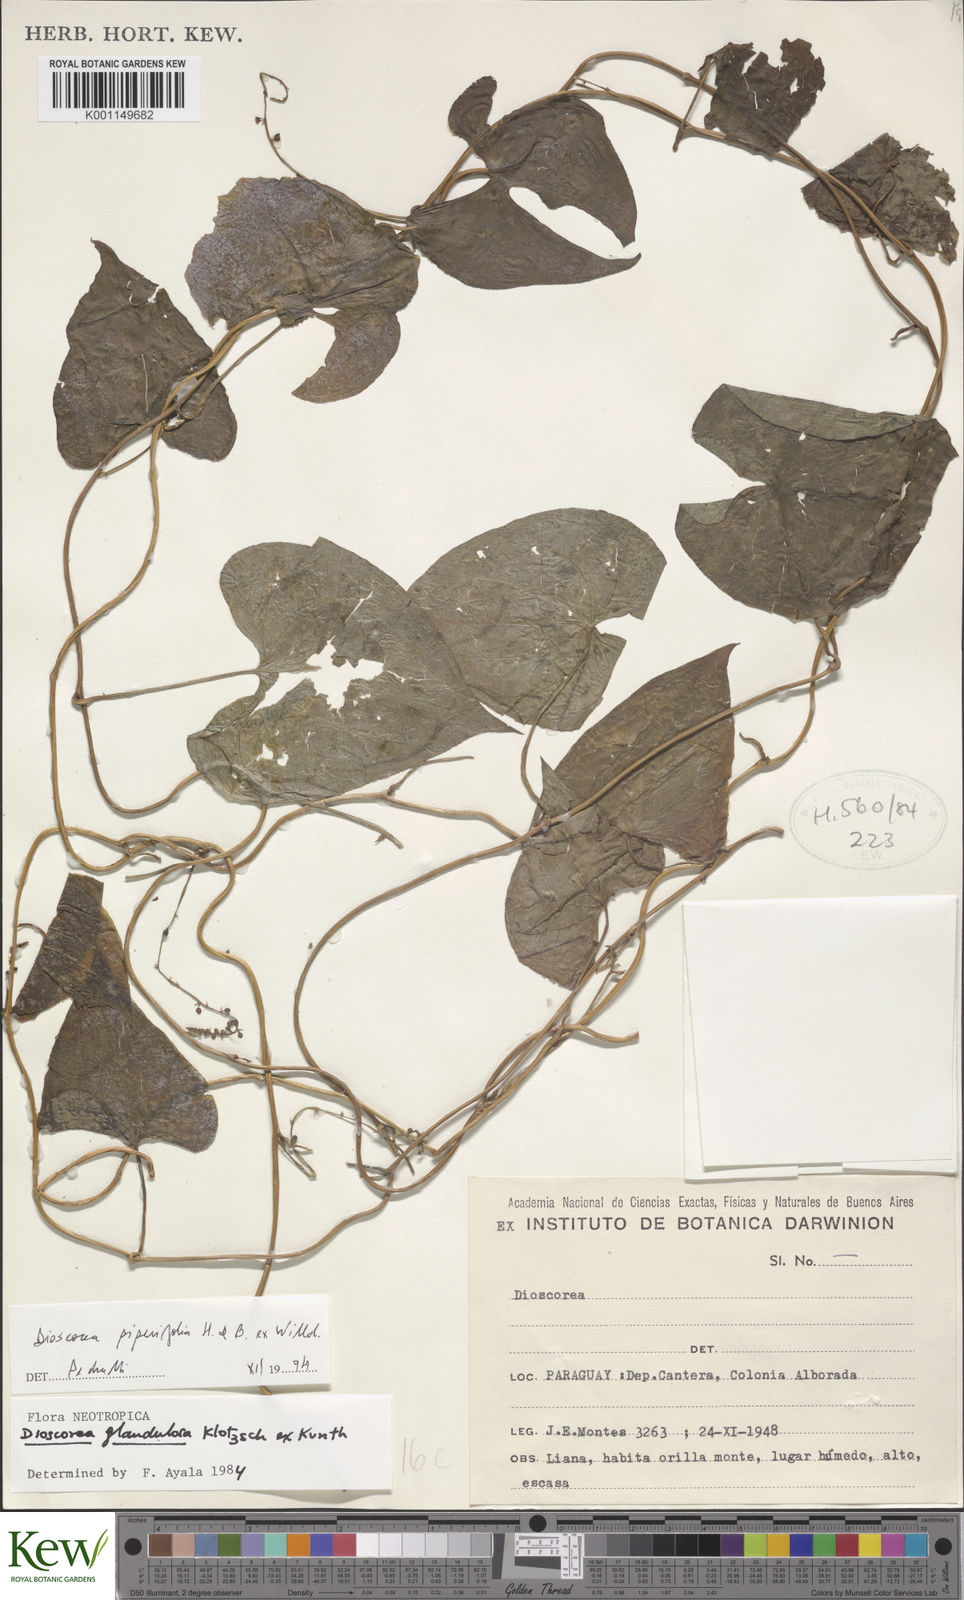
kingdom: Plantae
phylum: Tracheophyta
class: Liliopsida
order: Dioscoreales
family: Dioscoreaceae
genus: Dioscorea
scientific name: Dioscorea glandulosa
